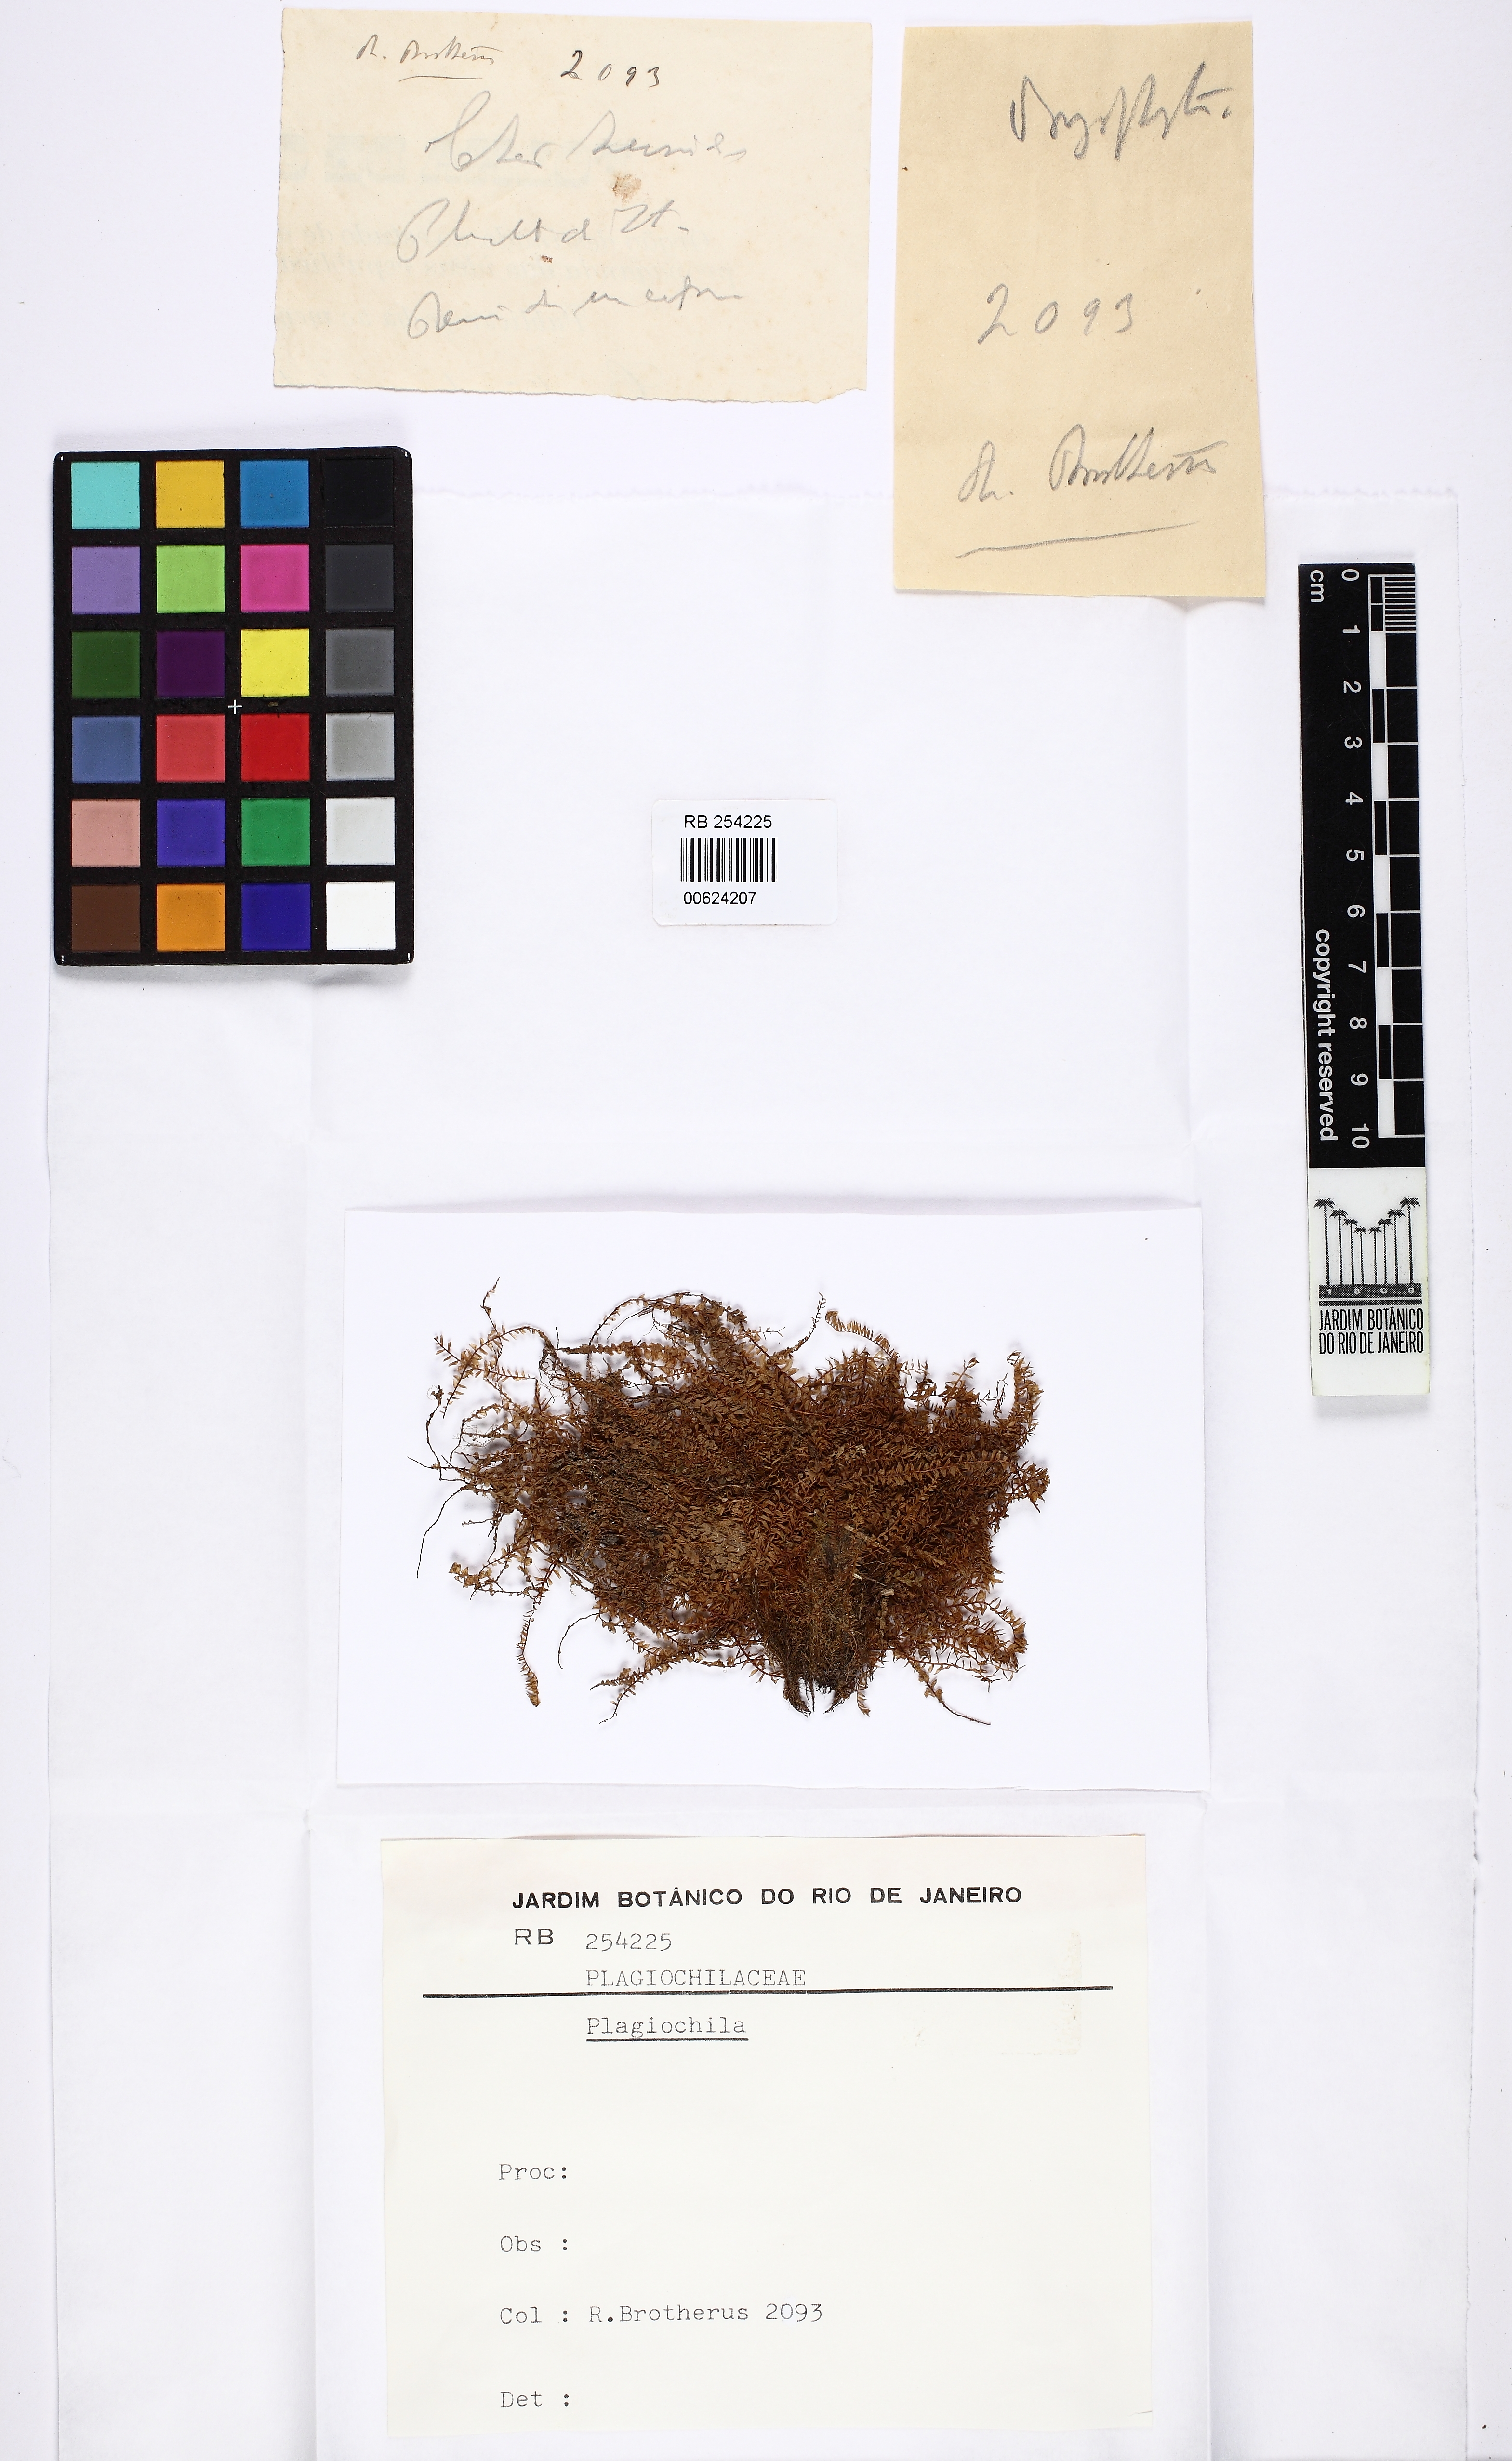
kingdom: Plantae
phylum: Marchantiophyta
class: Jungermanniopsida
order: Jungermanniales
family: Plagiochilaceae
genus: Plagiochila
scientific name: Plagiochila
